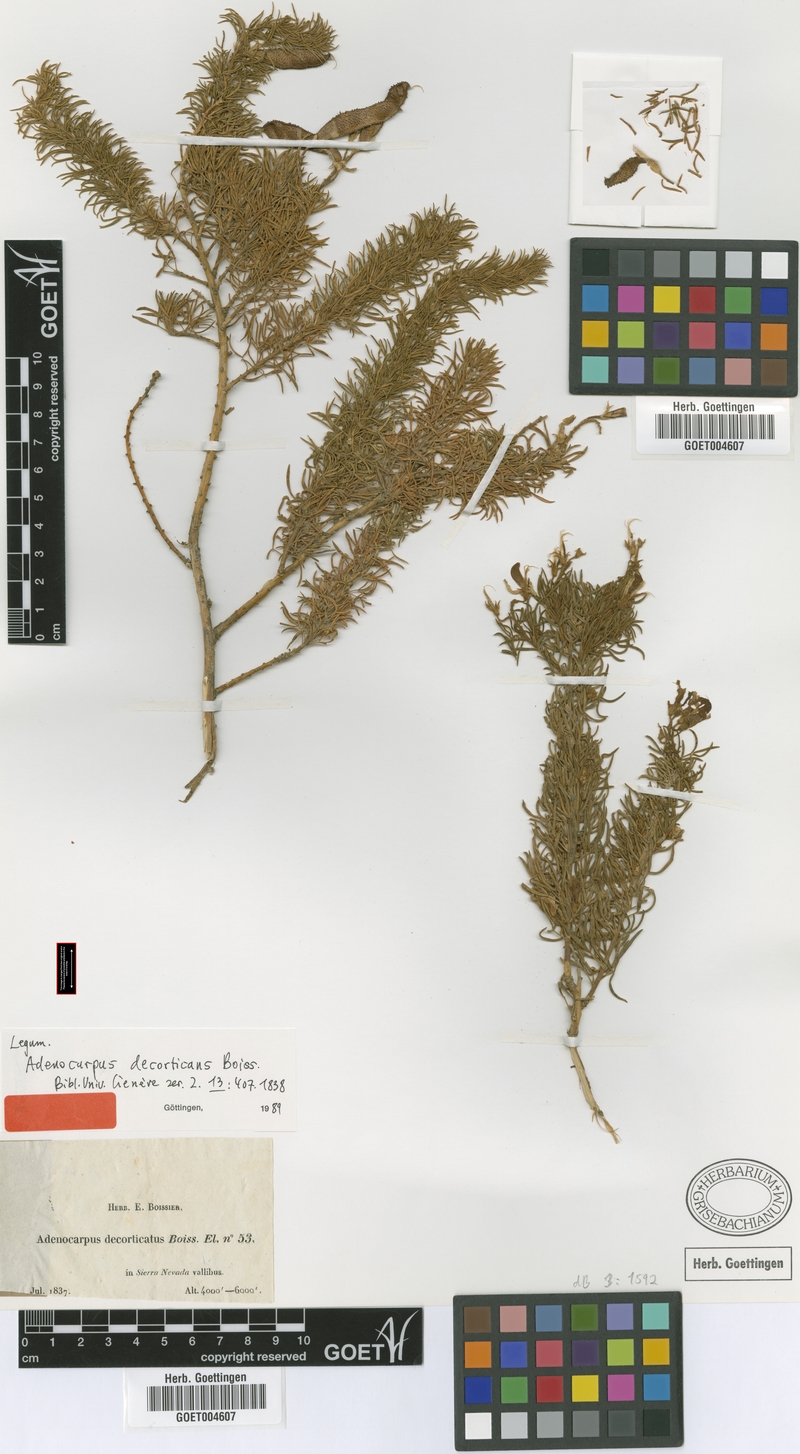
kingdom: Plantae
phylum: Tracheophyta
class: Magnoliopsida
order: Fabales
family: Fabaceae
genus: Adenocarpus
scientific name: Adenocarpus decorticans
